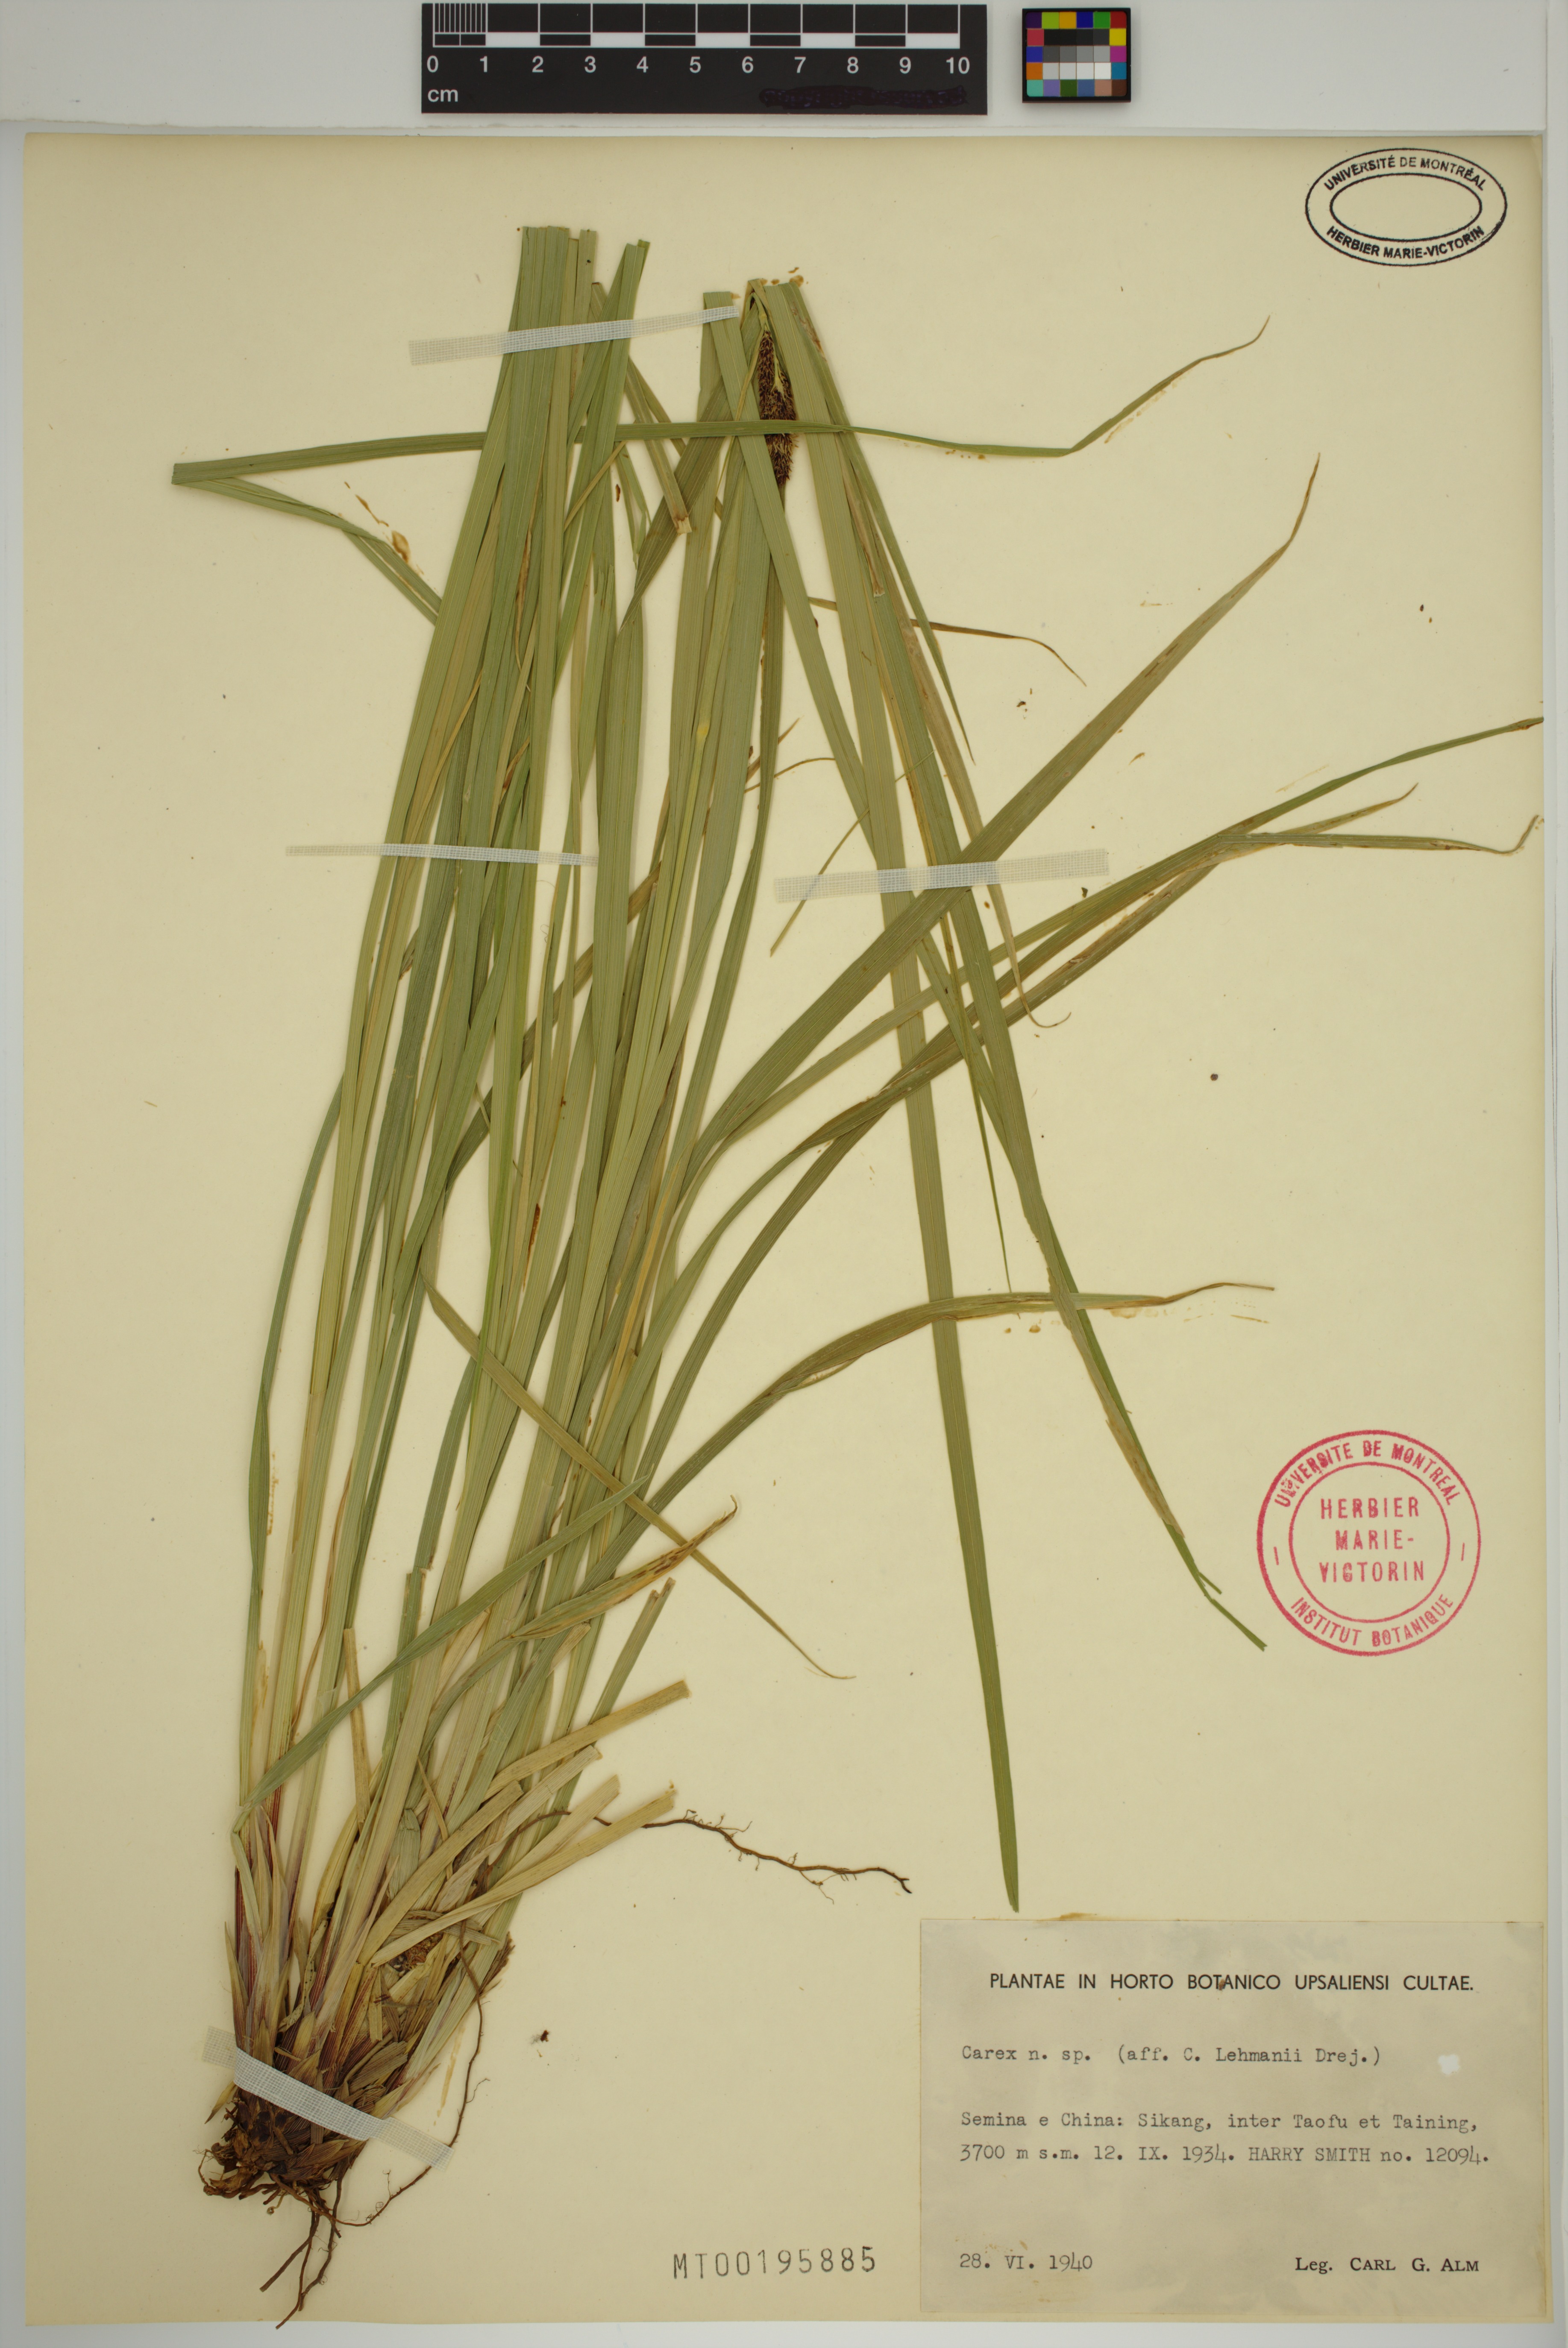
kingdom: Plantae
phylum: Tracheophyta
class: Liliopsida
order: Poales
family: Cyperaceae
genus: Carex
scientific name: Carex lehmannii
